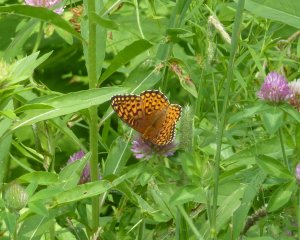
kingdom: Animalia
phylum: Arthropoda
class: Insecta
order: Lepidoptera
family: Nymphalidae
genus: Speyeria
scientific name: Speyeria atlantis
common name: Atlantis Fritillary
